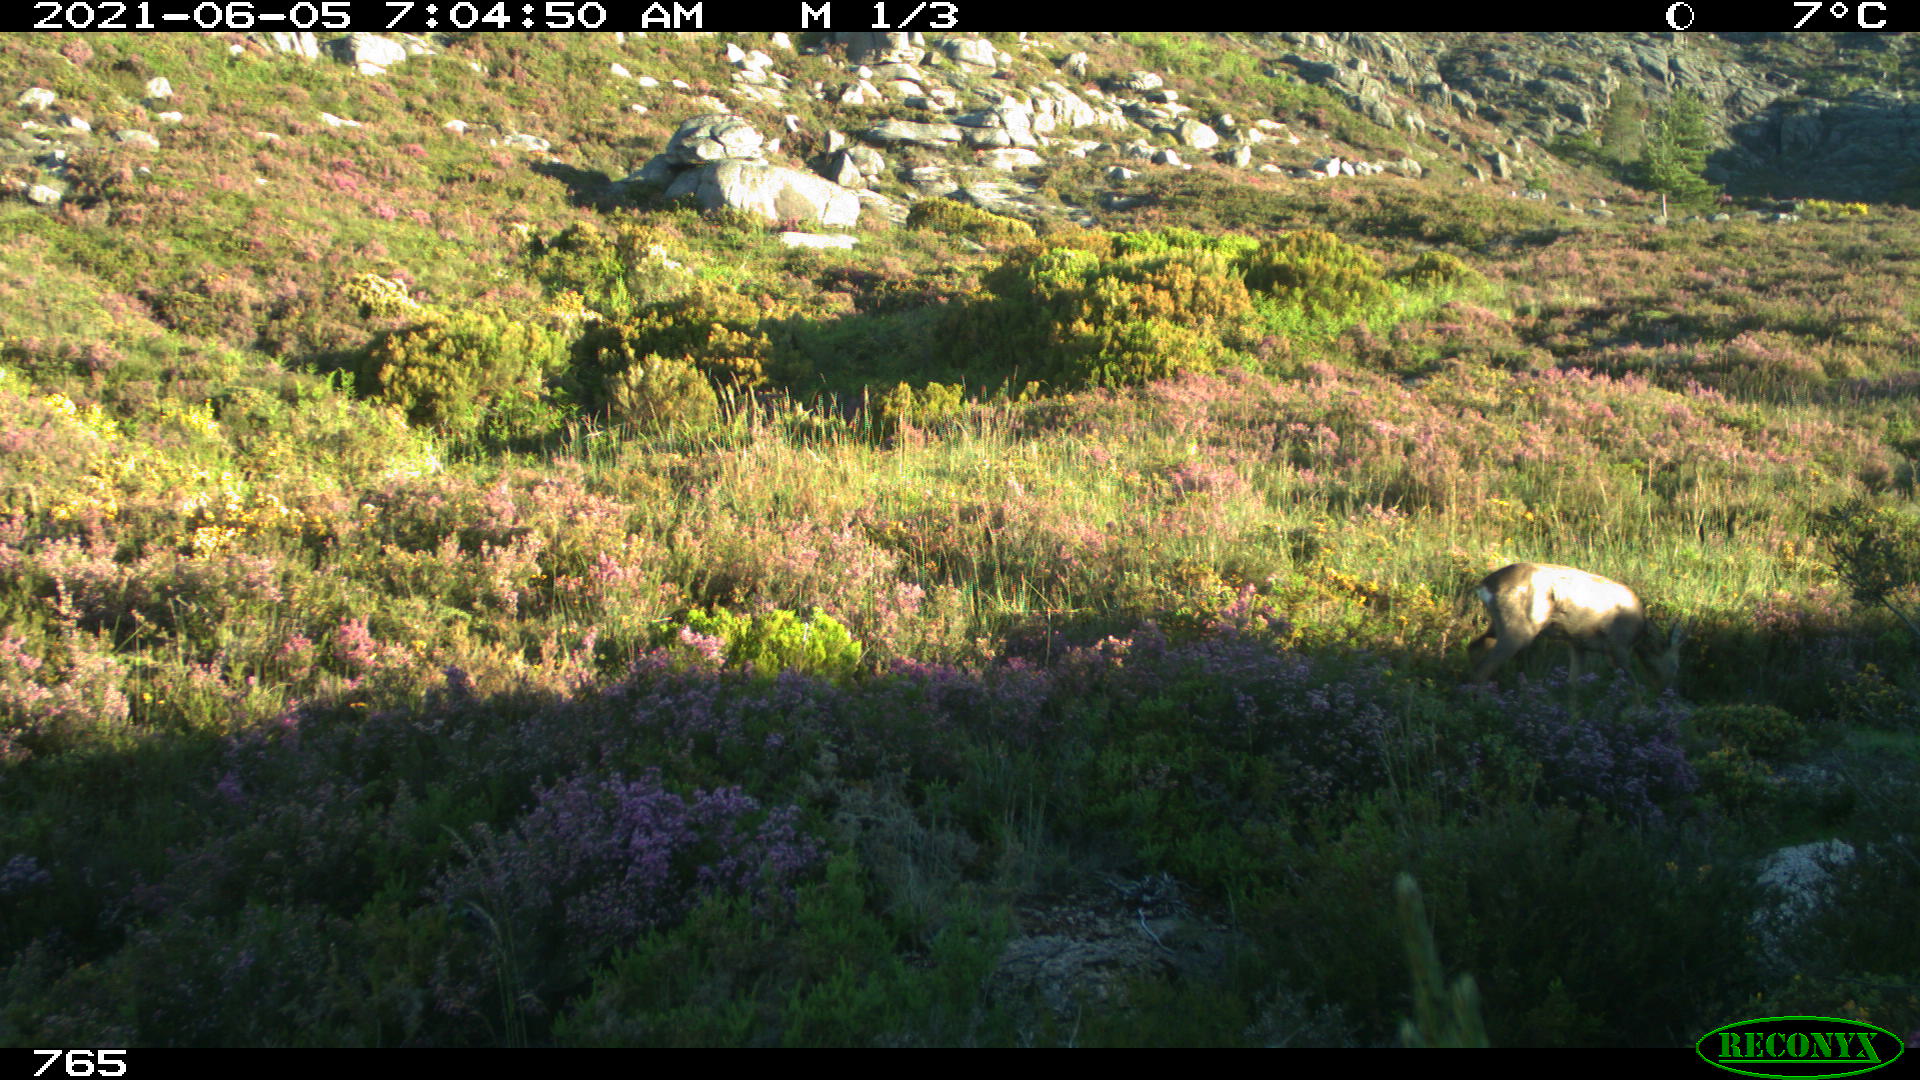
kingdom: Animalia
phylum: Chordata
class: Mammalia
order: Artiodactyla
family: Cervidae
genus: Capreolus
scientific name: Capreolus capreolus
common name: Western roe deer
